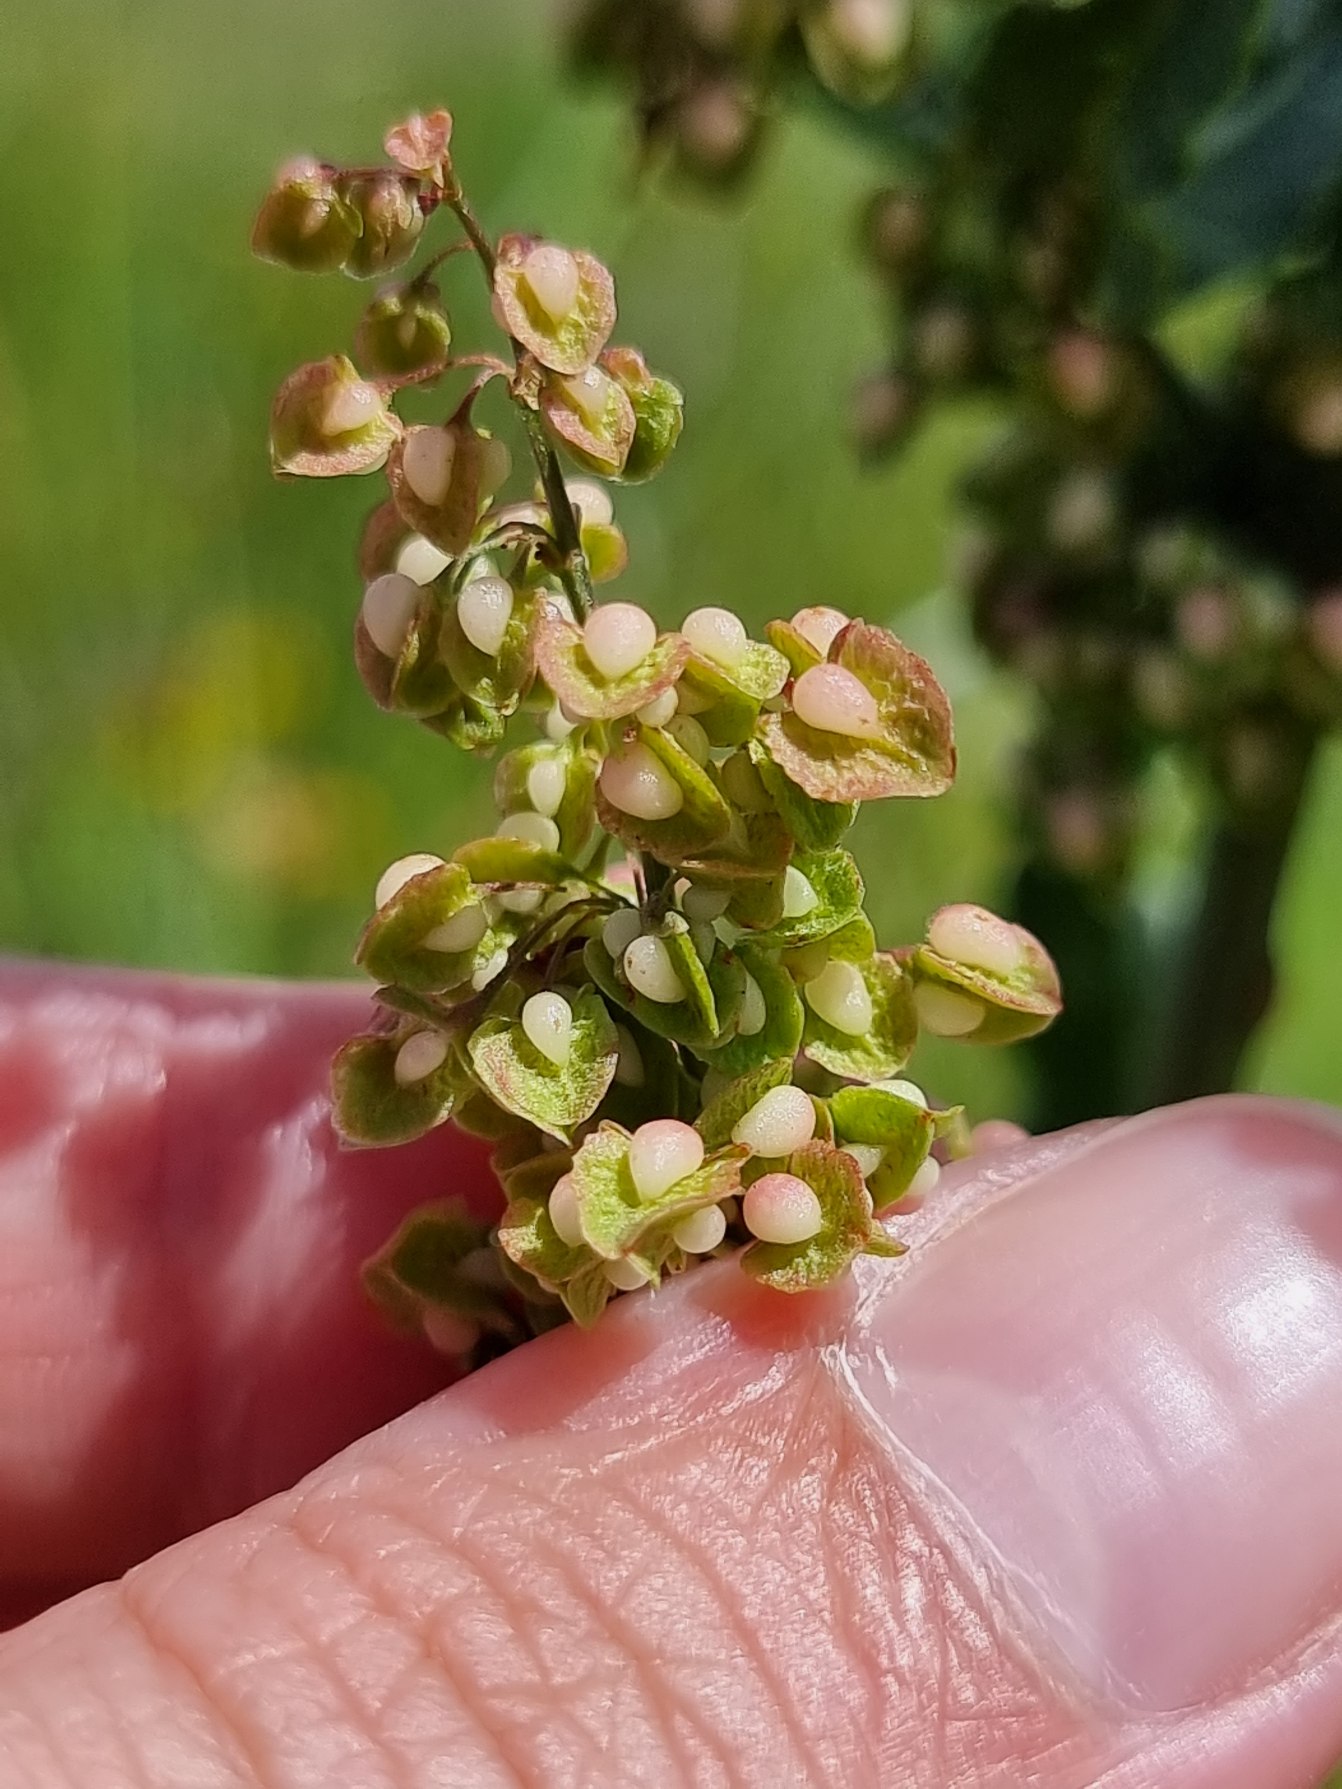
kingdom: Plantae
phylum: Tracheophyta
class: Magnoliopsida
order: Caryophyllales
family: Polygonaceae
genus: Rumex
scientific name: Rumex crispus
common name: Kruset skræppe
